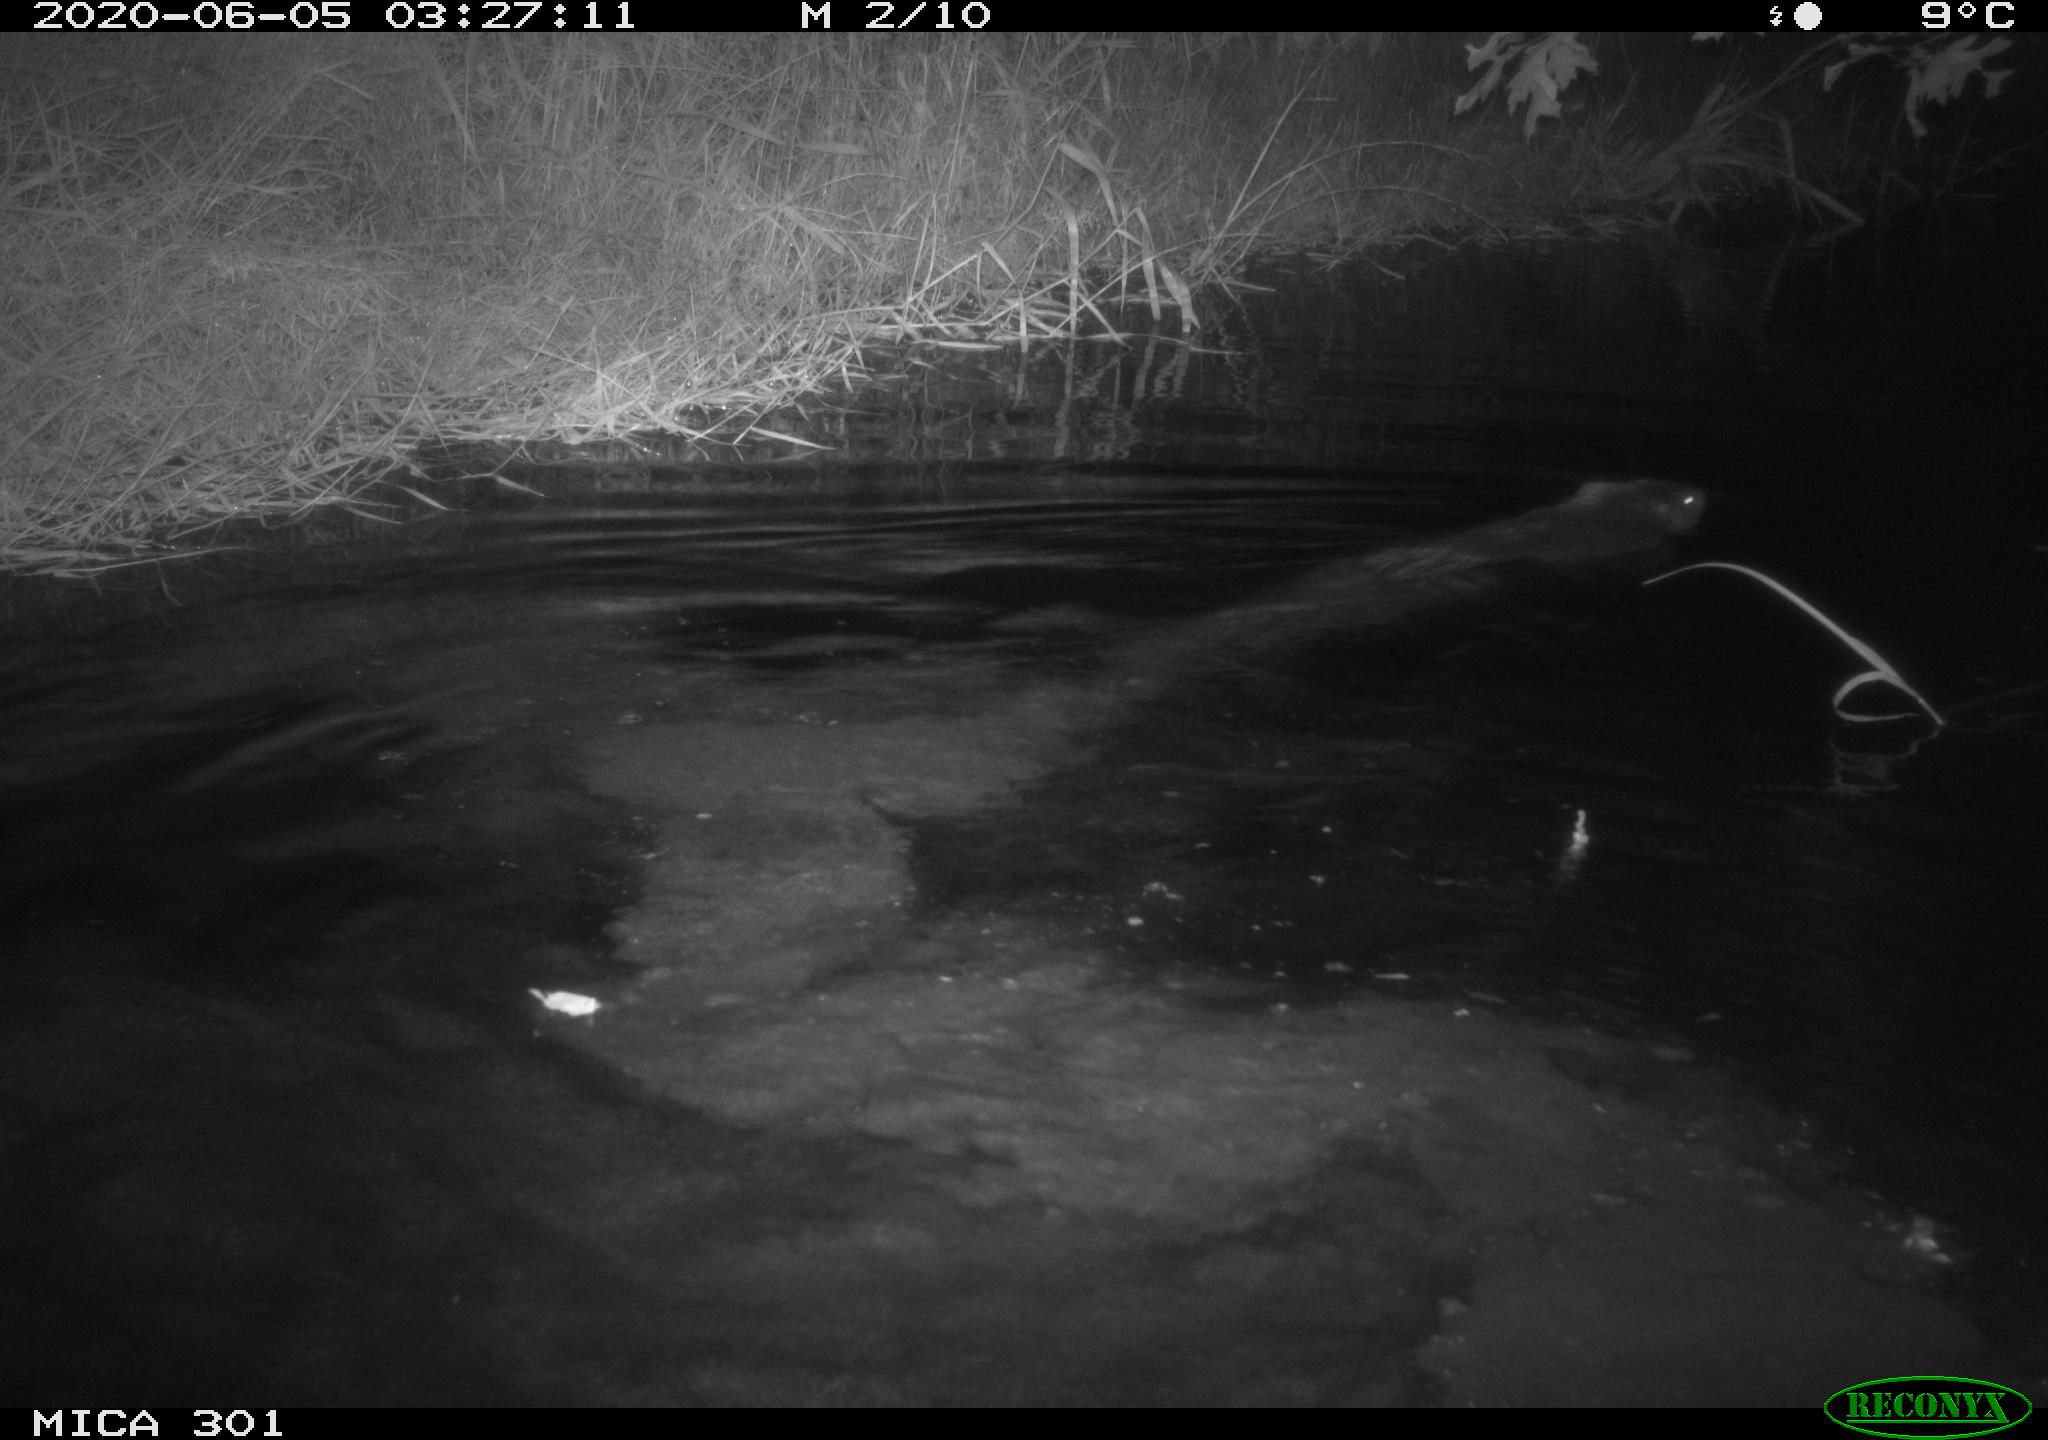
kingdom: Animalia
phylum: Chordata
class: Mammalia
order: Rodentia
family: Castoridae
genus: Castor
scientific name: Castor fiber
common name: Eurasian beaver
